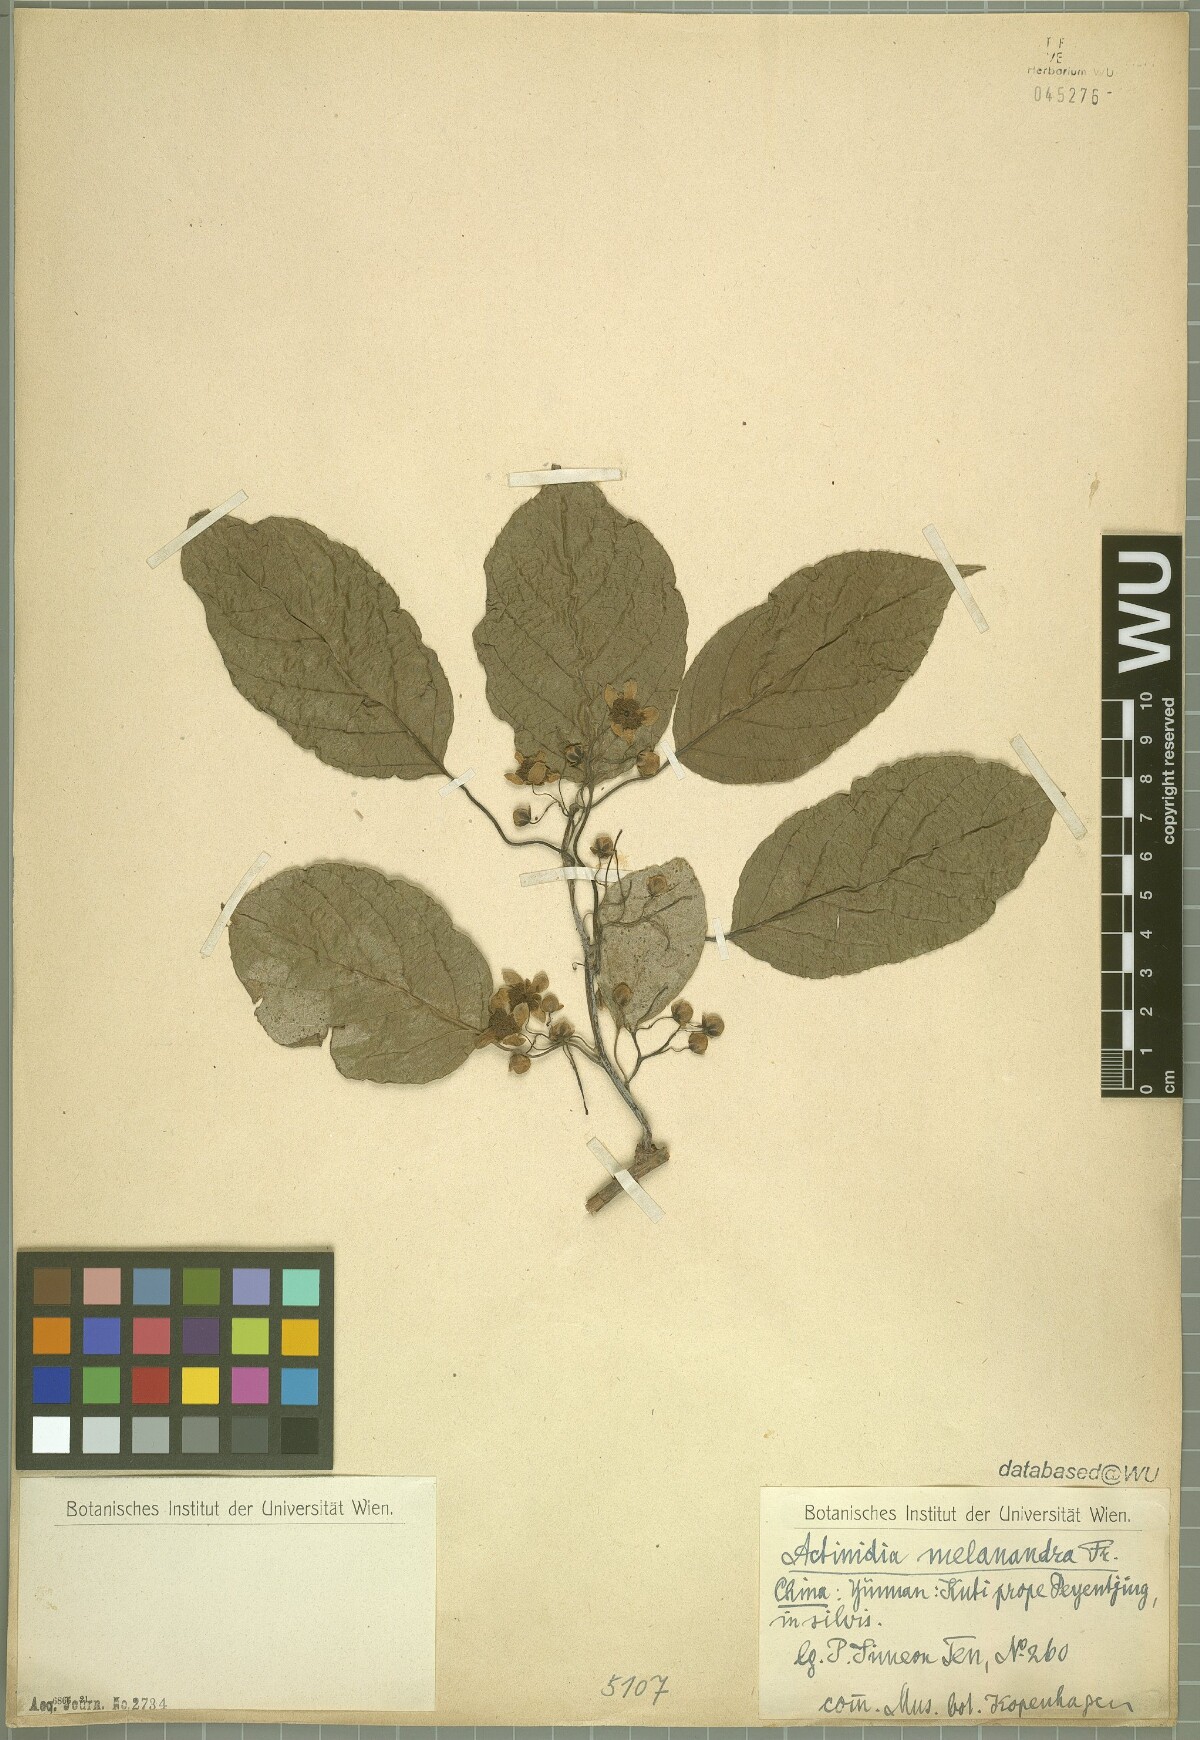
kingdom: Plantae
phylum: Tracheophyta
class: Magnoliopsida
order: Ericales
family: Actinidiaceae
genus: Actinidia
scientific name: Actinidia melanandra
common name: Red kiwi
